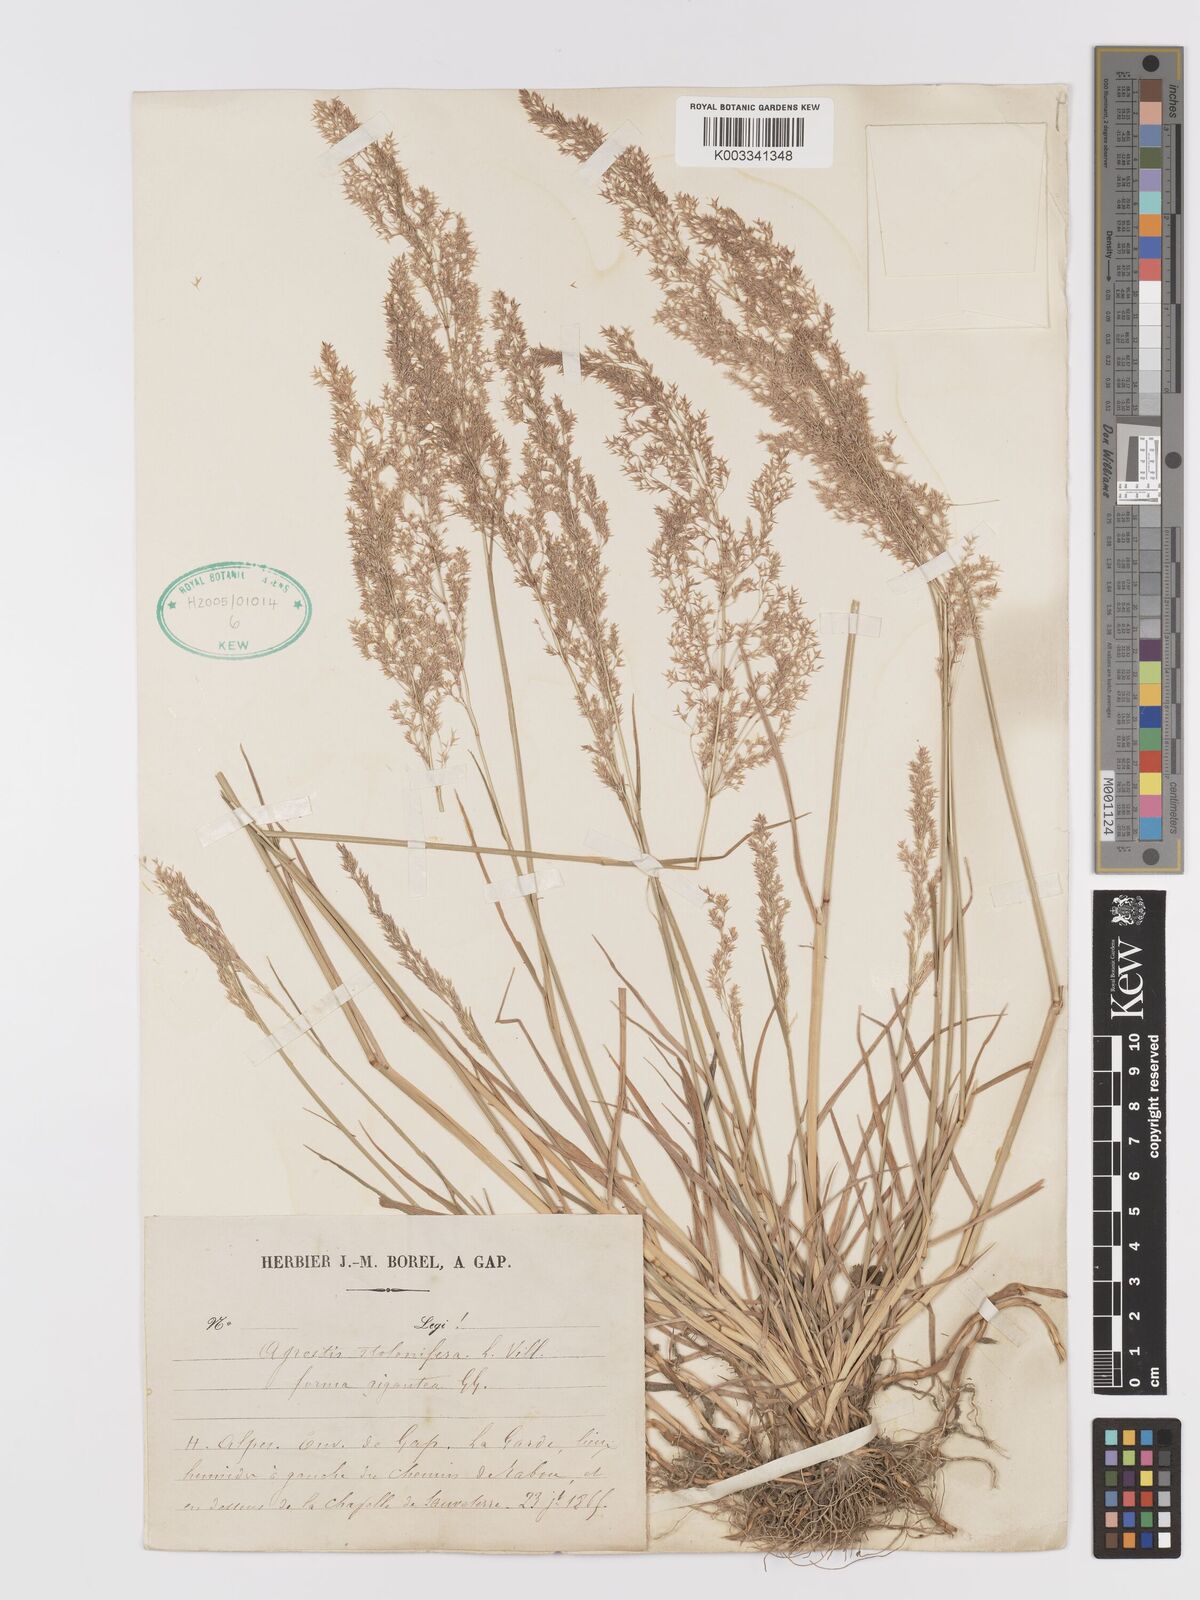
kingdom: Plantae
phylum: Tracheophyta
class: Liliopsida
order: Poales
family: Poaceae
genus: Agrostis
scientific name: Agrostis gigantea
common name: Black bent
